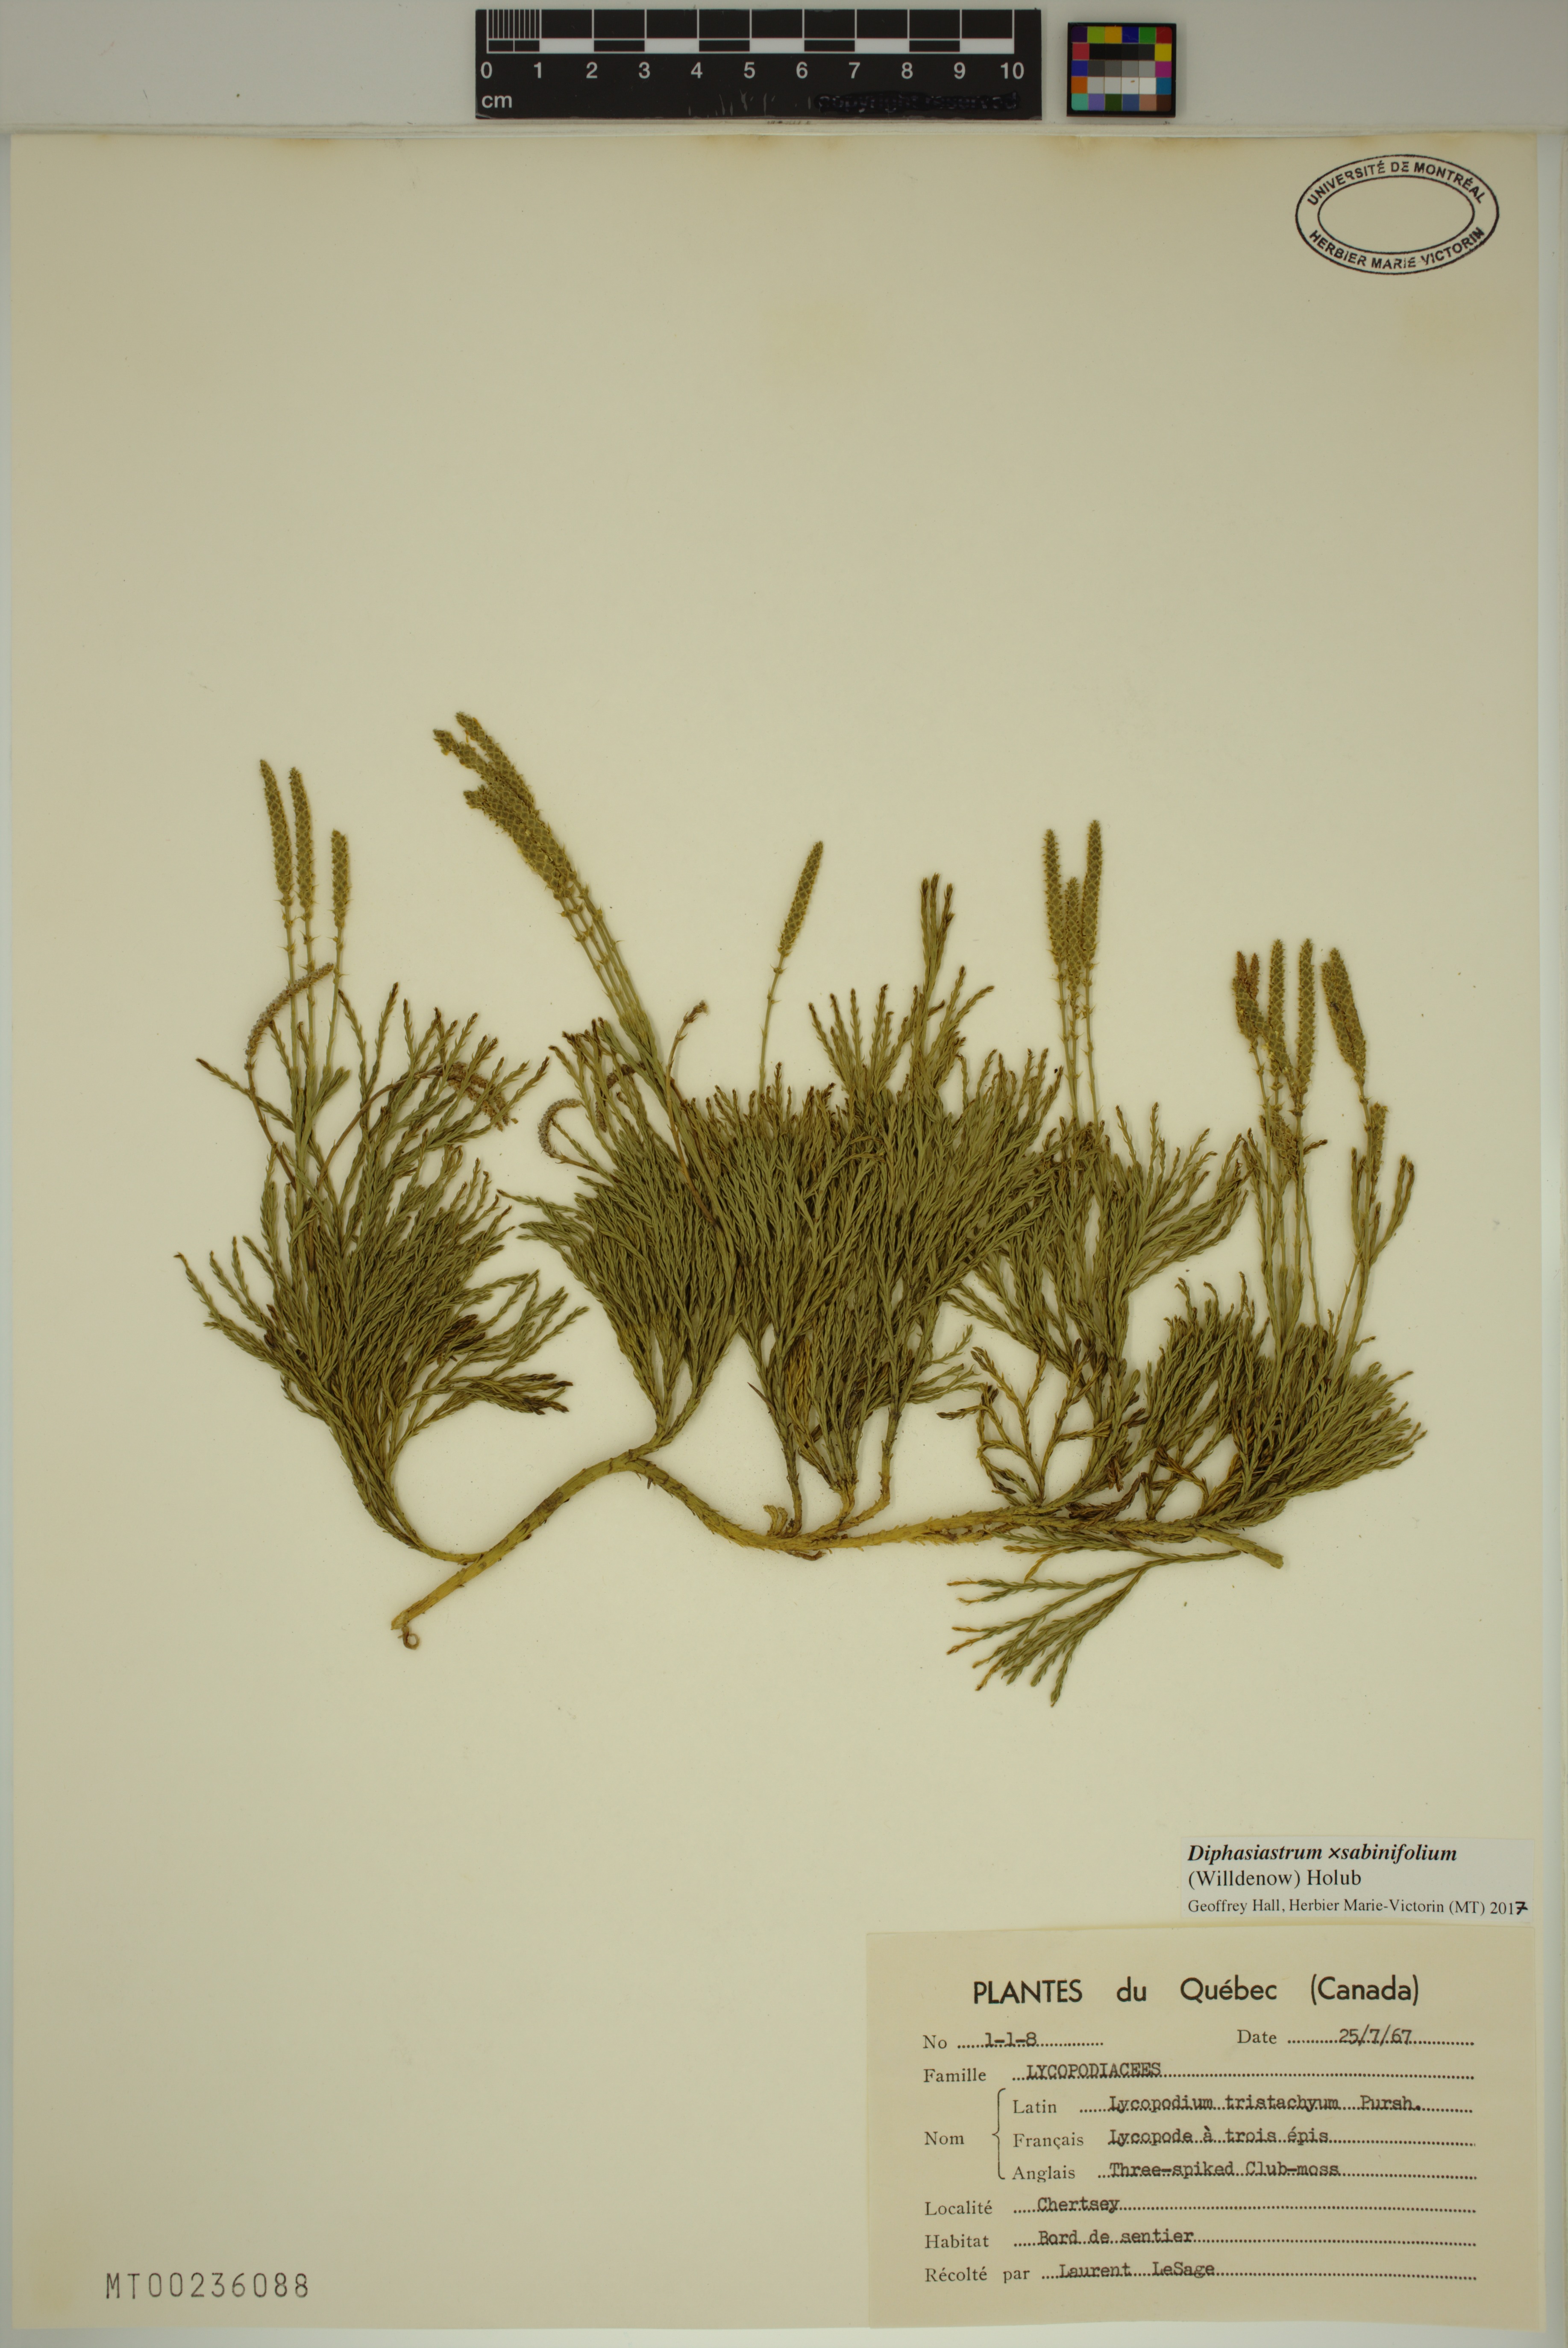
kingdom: Plantae
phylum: Tracheophyta
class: Lycopodiopsida
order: Lycopodiales
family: Lycopodiaceae
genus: Diphasiastrum
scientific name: Diphasiastrum sabinifolium
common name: Juniper clubmoss
